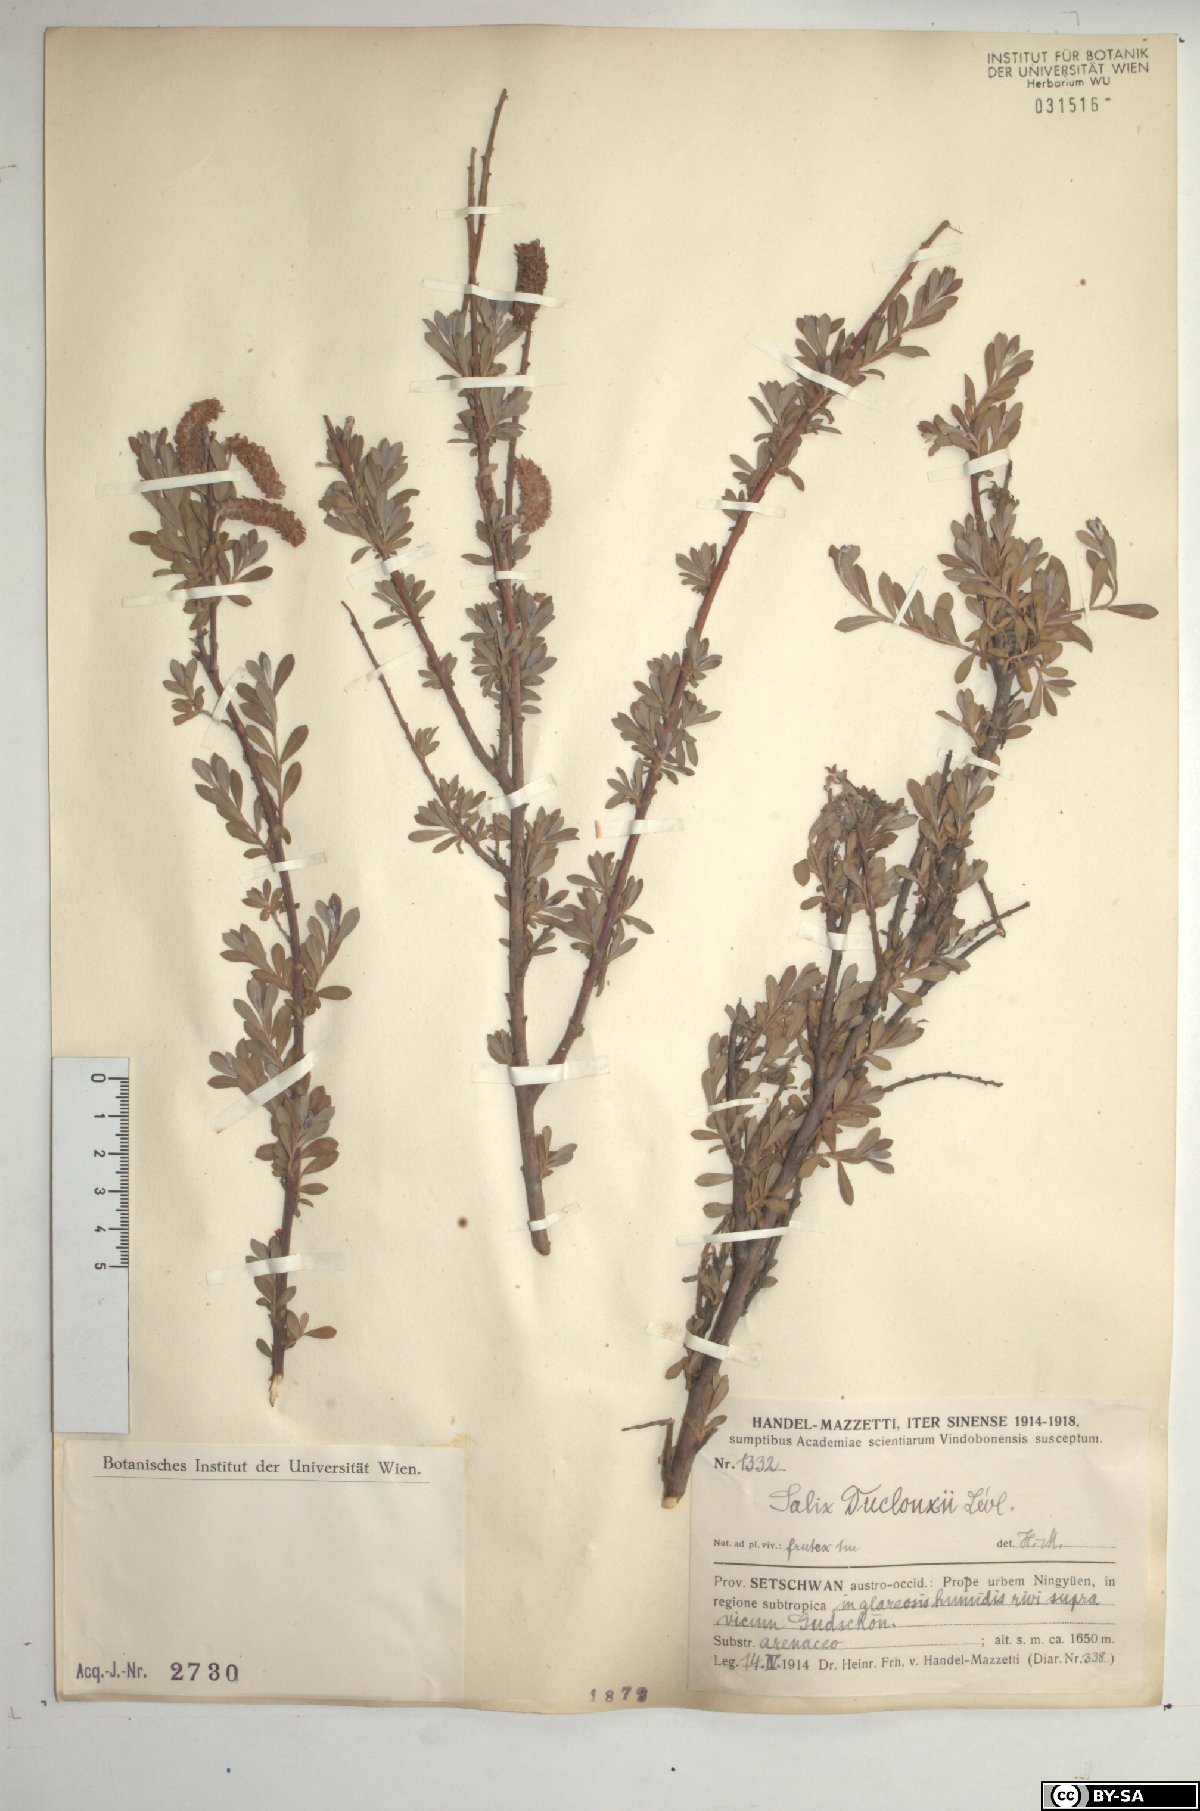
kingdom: Plantae
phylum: Tracheophyta
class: Magnoliopsida
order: Malpighiales
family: Salicaceae
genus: Salix
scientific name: Salix variegata
